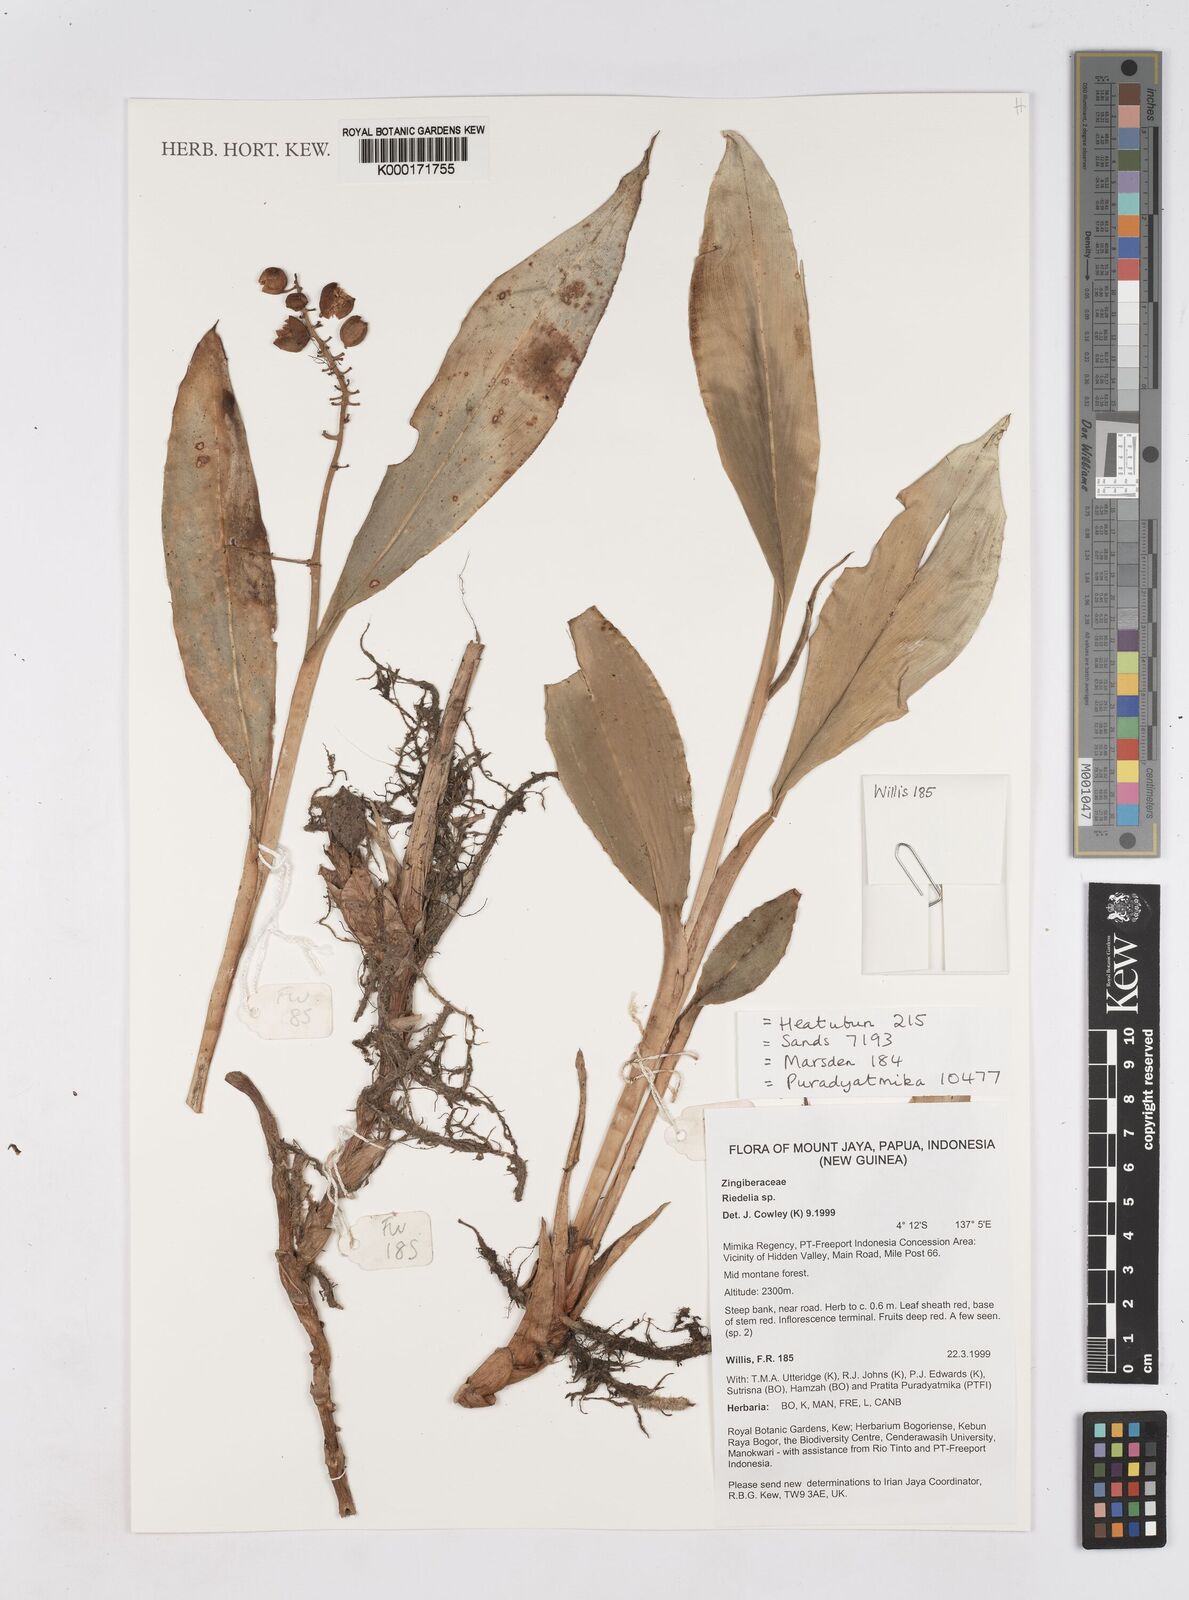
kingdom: Plantae
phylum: Tracheophyta
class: Liliopsida
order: Zingiberales
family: Zingiberaceae
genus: Riedelia
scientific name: Riedelia
